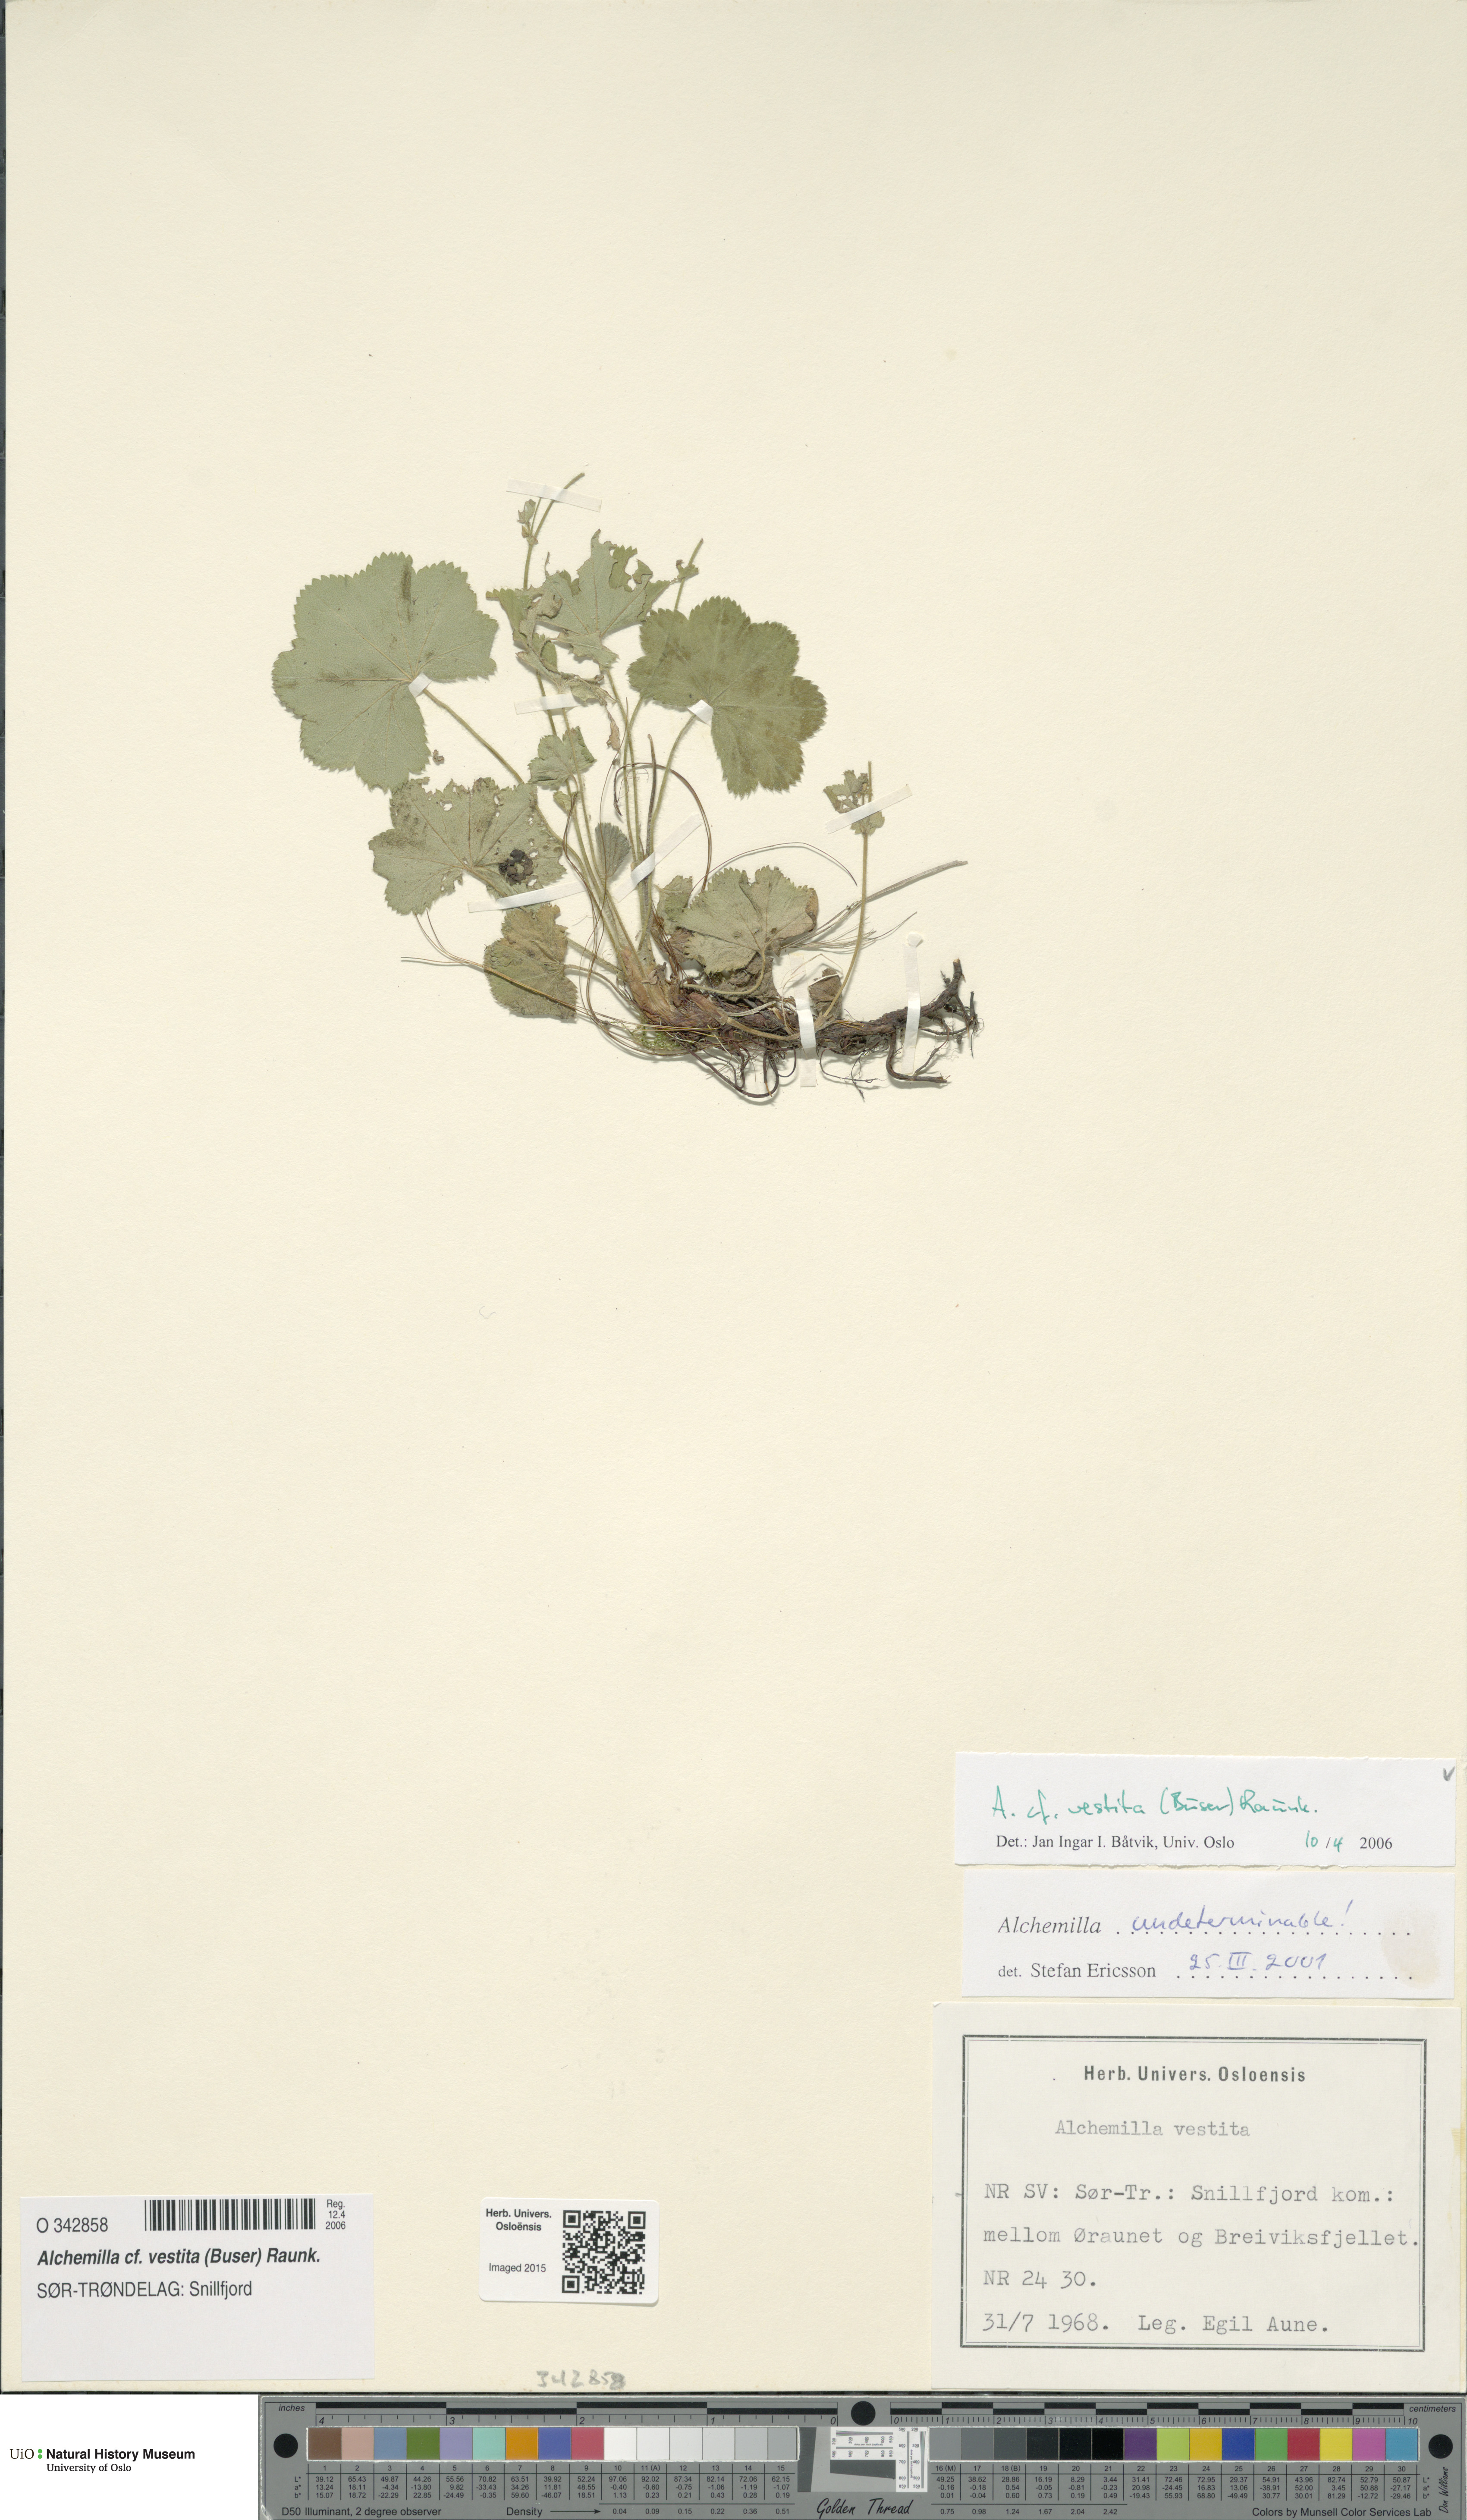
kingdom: Plantae
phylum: Tracheophyta
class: Magnoliopsida
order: Rosales
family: Rosaceae
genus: Alchemilla
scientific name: Alchemilla filicaulis
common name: Hairy lady's-mantle
